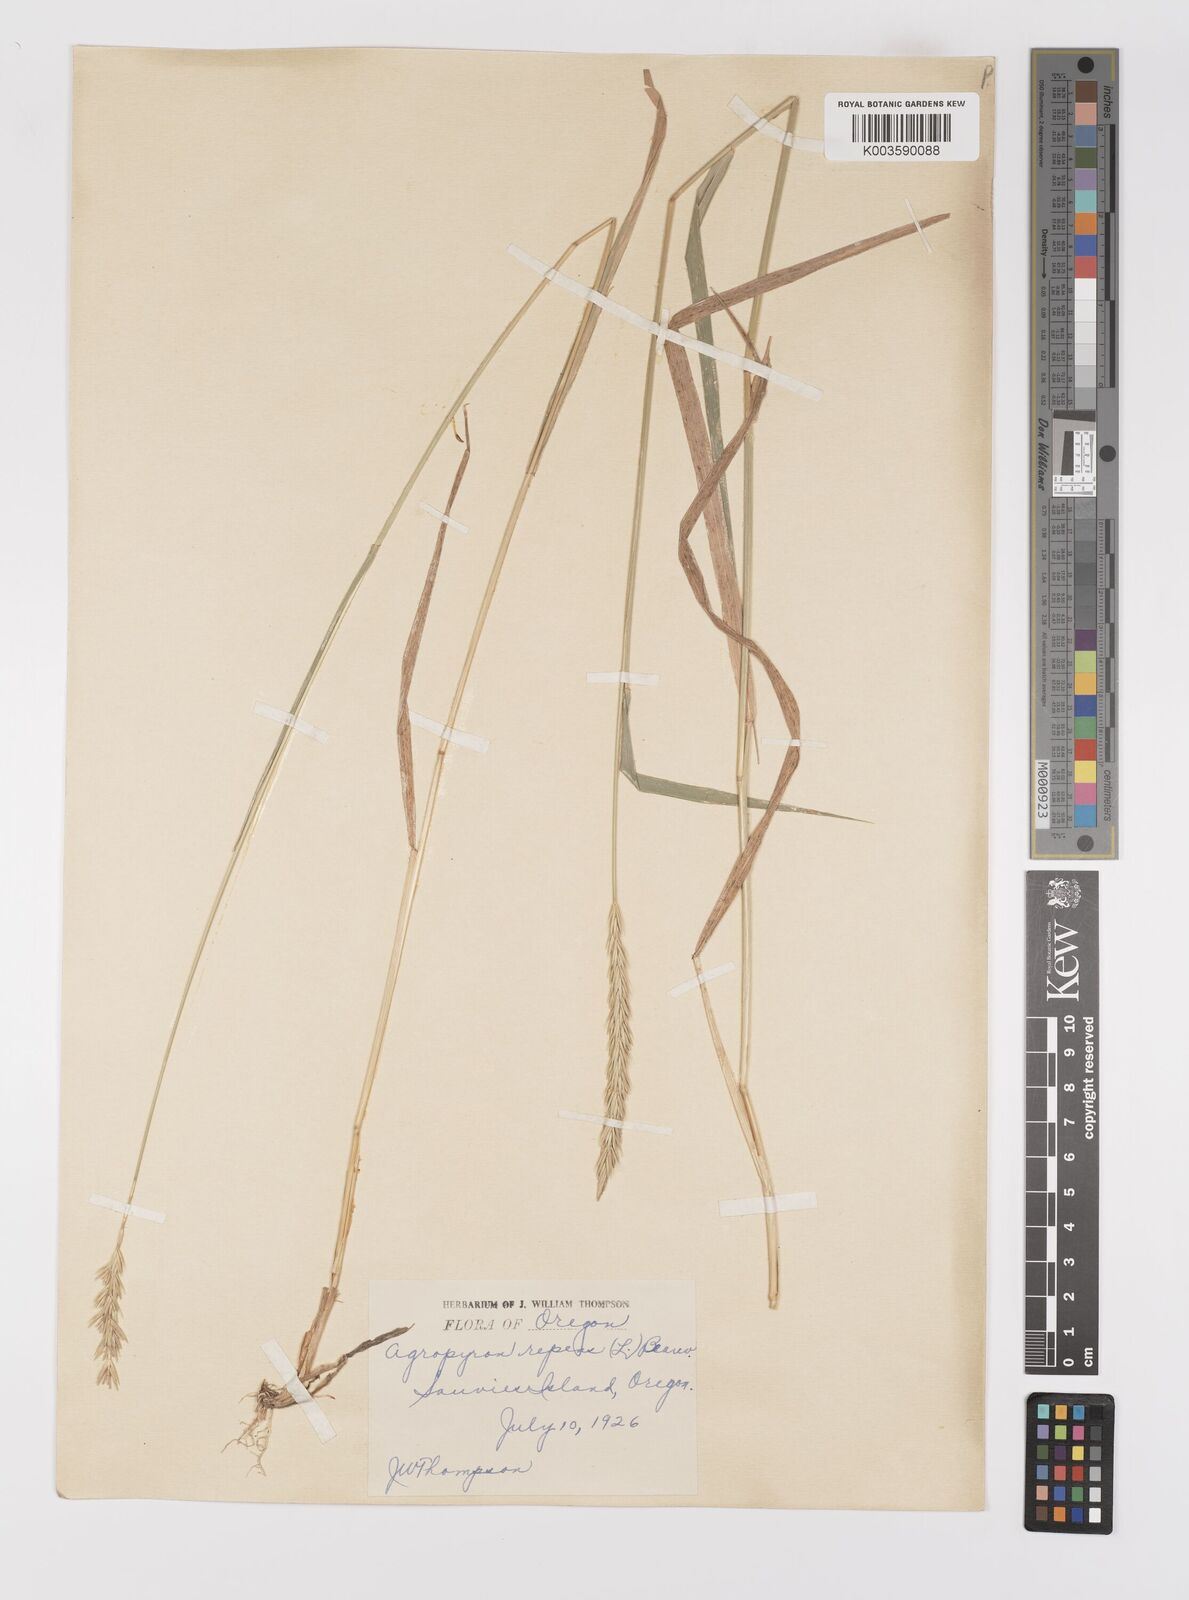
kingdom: Plantae
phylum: Tracheophyta
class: Liliopsida
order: Poales
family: Poaceae
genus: Elymus
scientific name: Elymus repens
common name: Quackgrass
